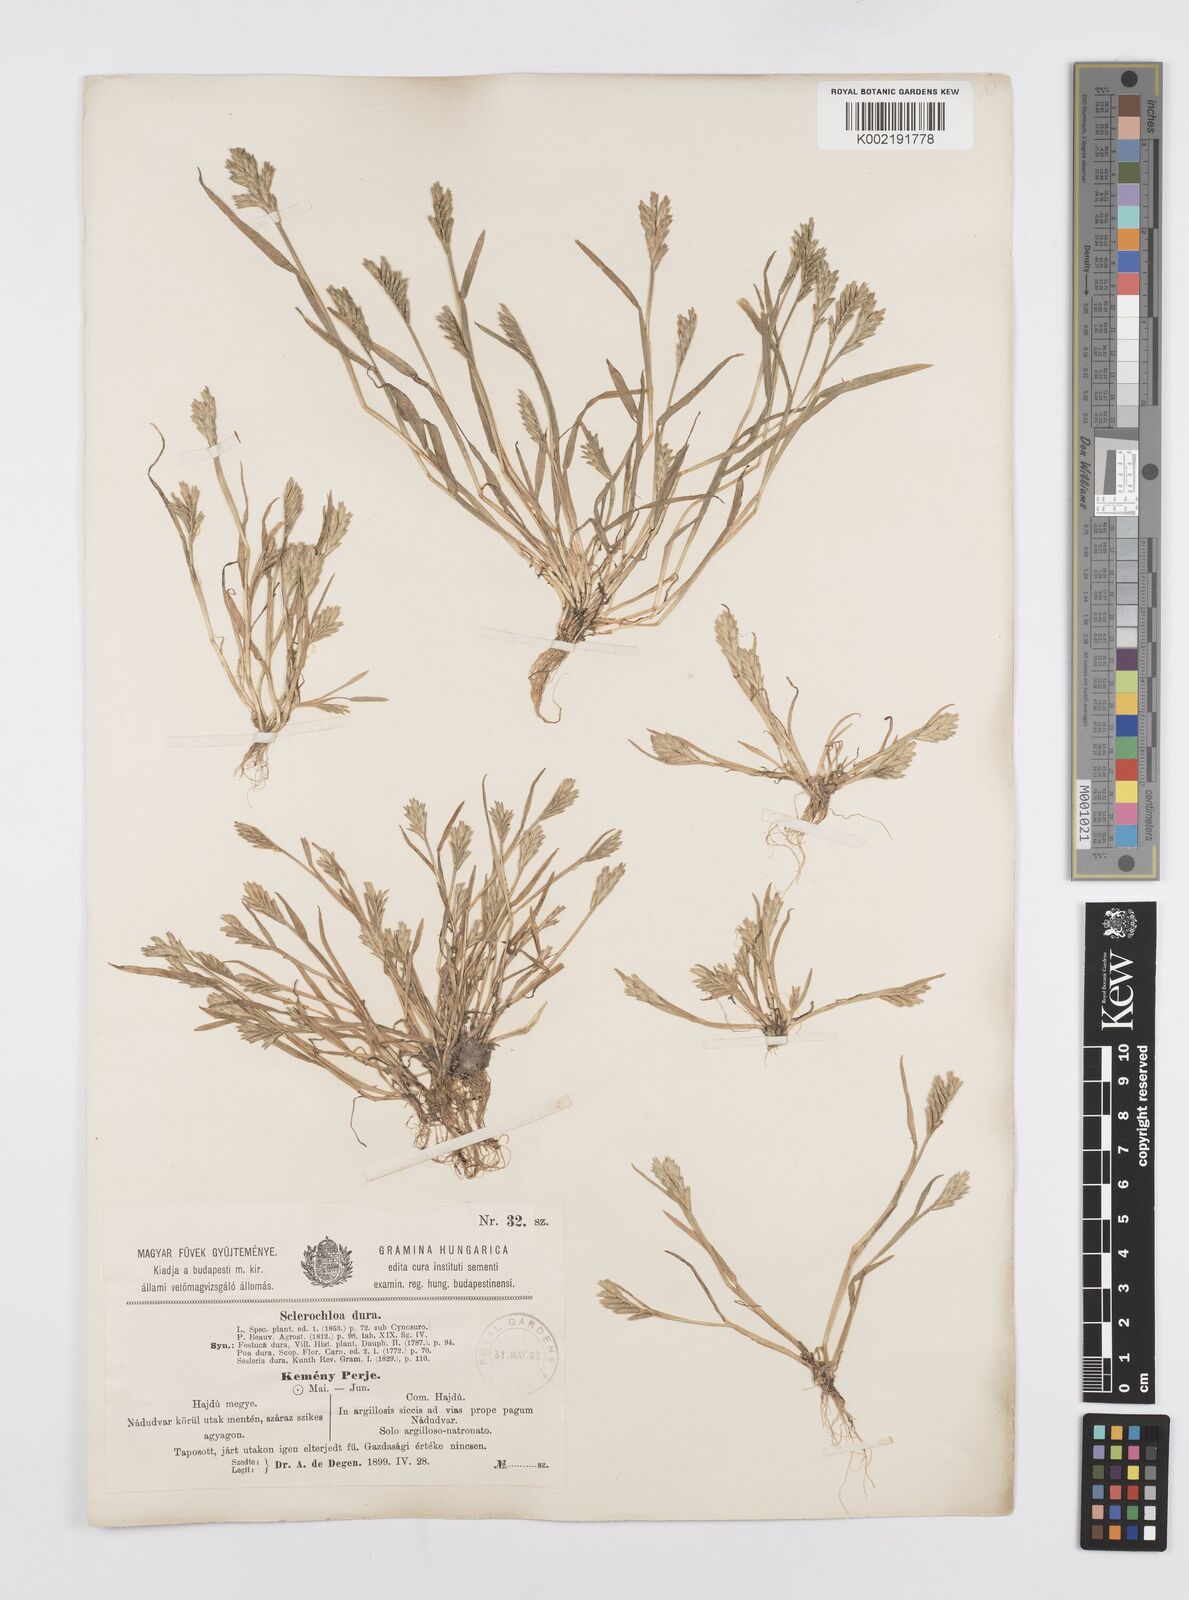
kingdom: Plantae
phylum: Tracheophyta
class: Liliopsida
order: Poales
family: Poaceae
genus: Sclerochloa
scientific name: Sclerochloa dura
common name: Common hardgrass
